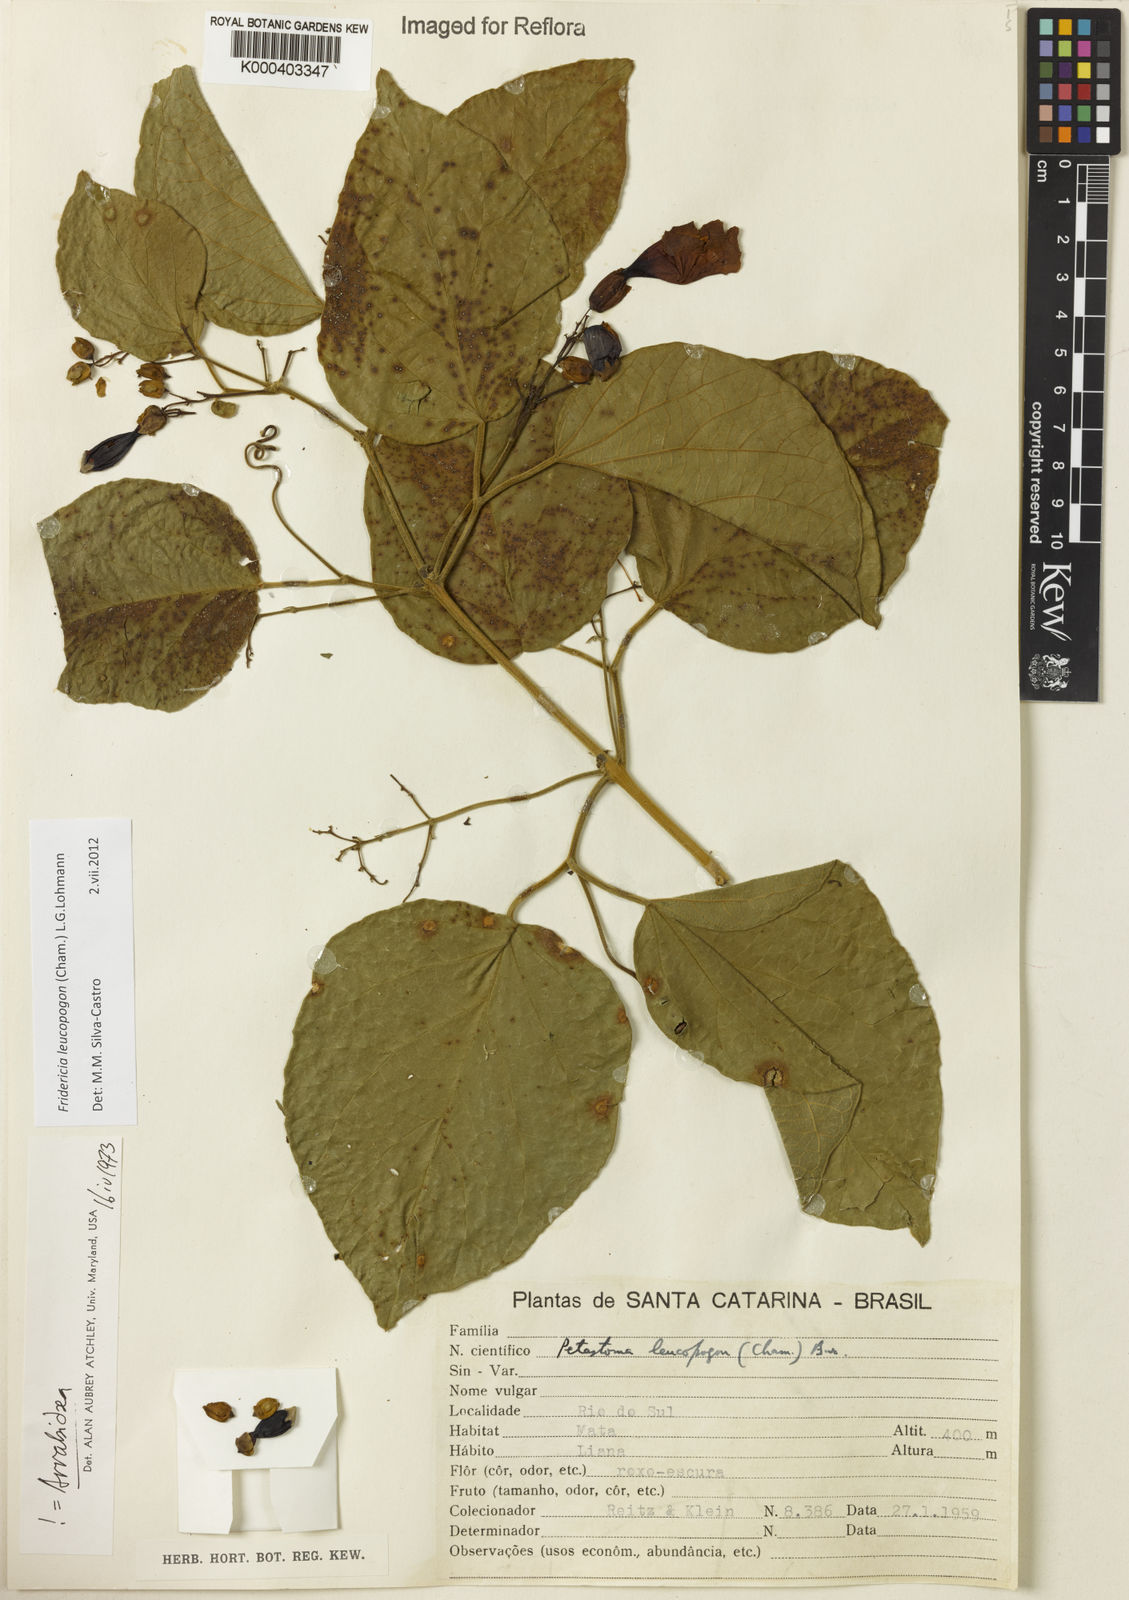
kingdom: Plantae
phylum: Tracheophyta
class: Magnoliopsida
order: Lamiales
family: Bignoniaceae
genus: Fridericia
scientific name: Fridericia leucopogon
